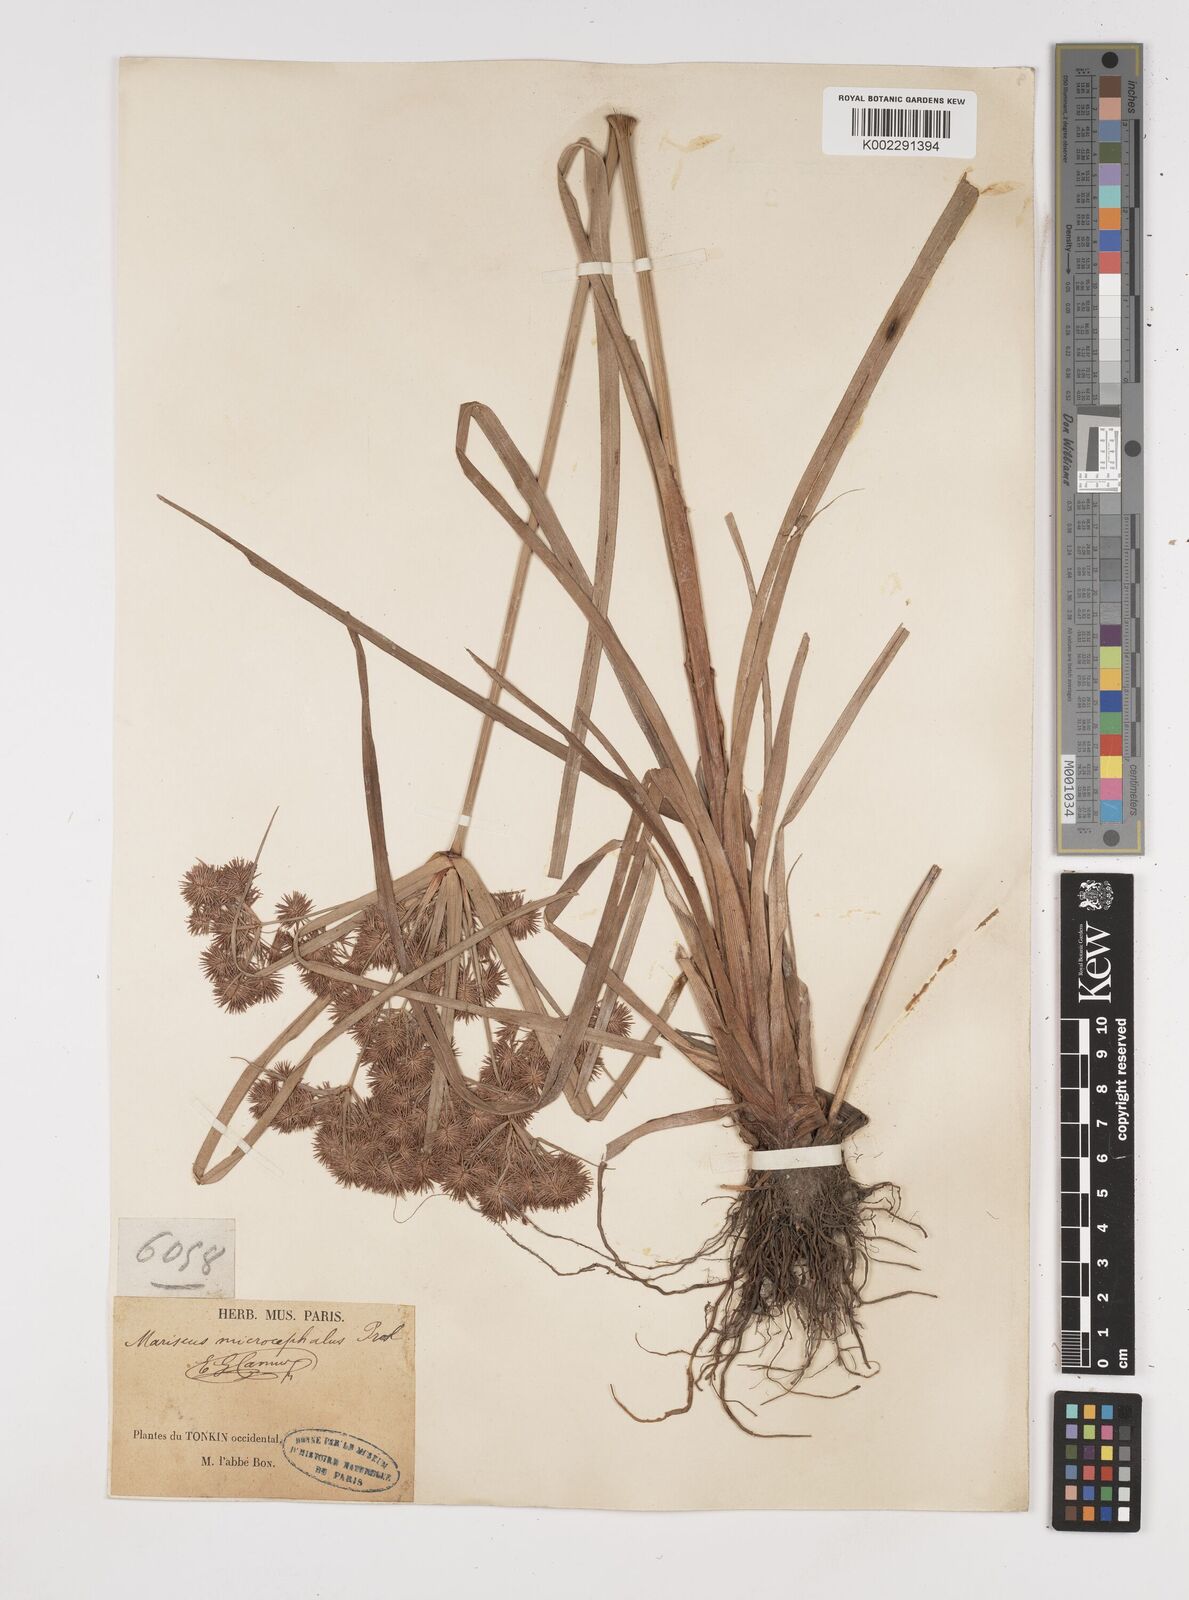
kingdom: Plantae
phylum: Tracheophyta
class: Liliopsida
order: Poales
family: Cyperaceae
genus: Cyperus
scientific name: Cyperus compactus
